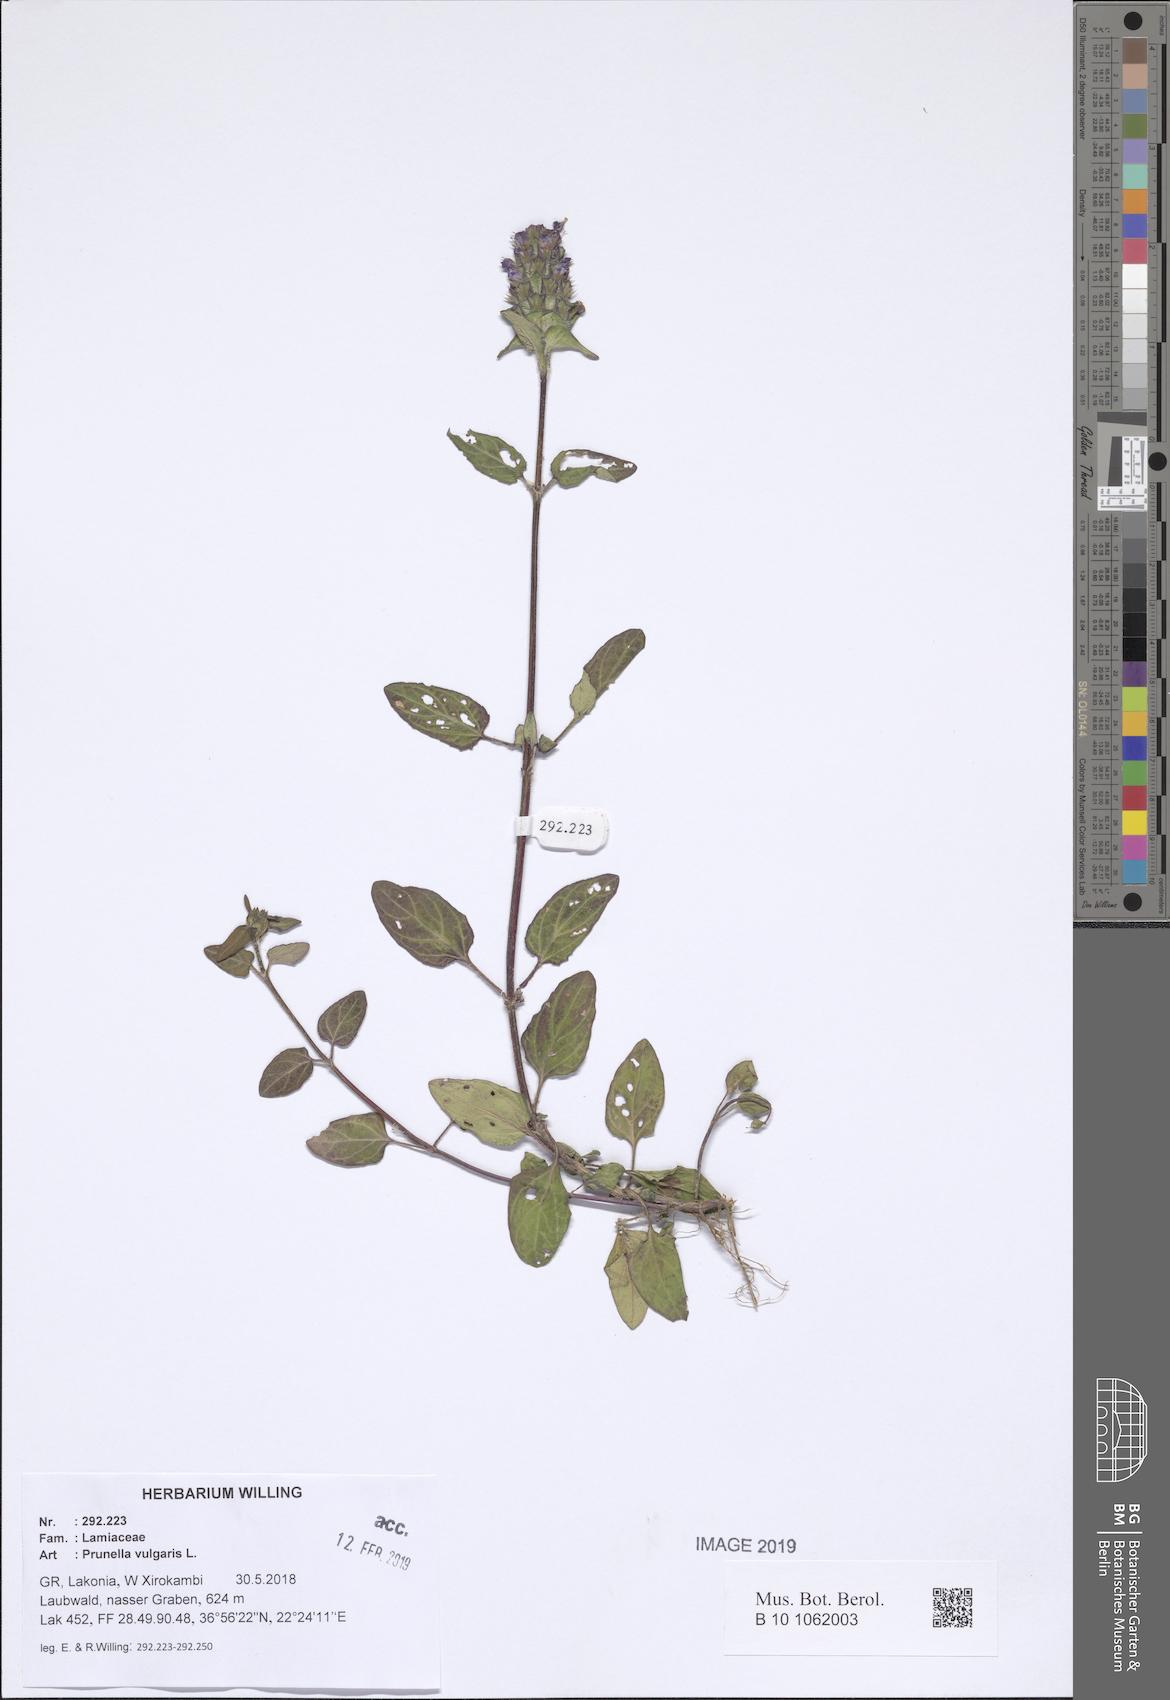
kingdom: Plantae
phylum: Tracheophyta
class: Magnoliopsida
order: Lamiales
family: Lamiaceae
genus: Prunella
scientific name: Prunella vulgaris
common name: Heal-all
